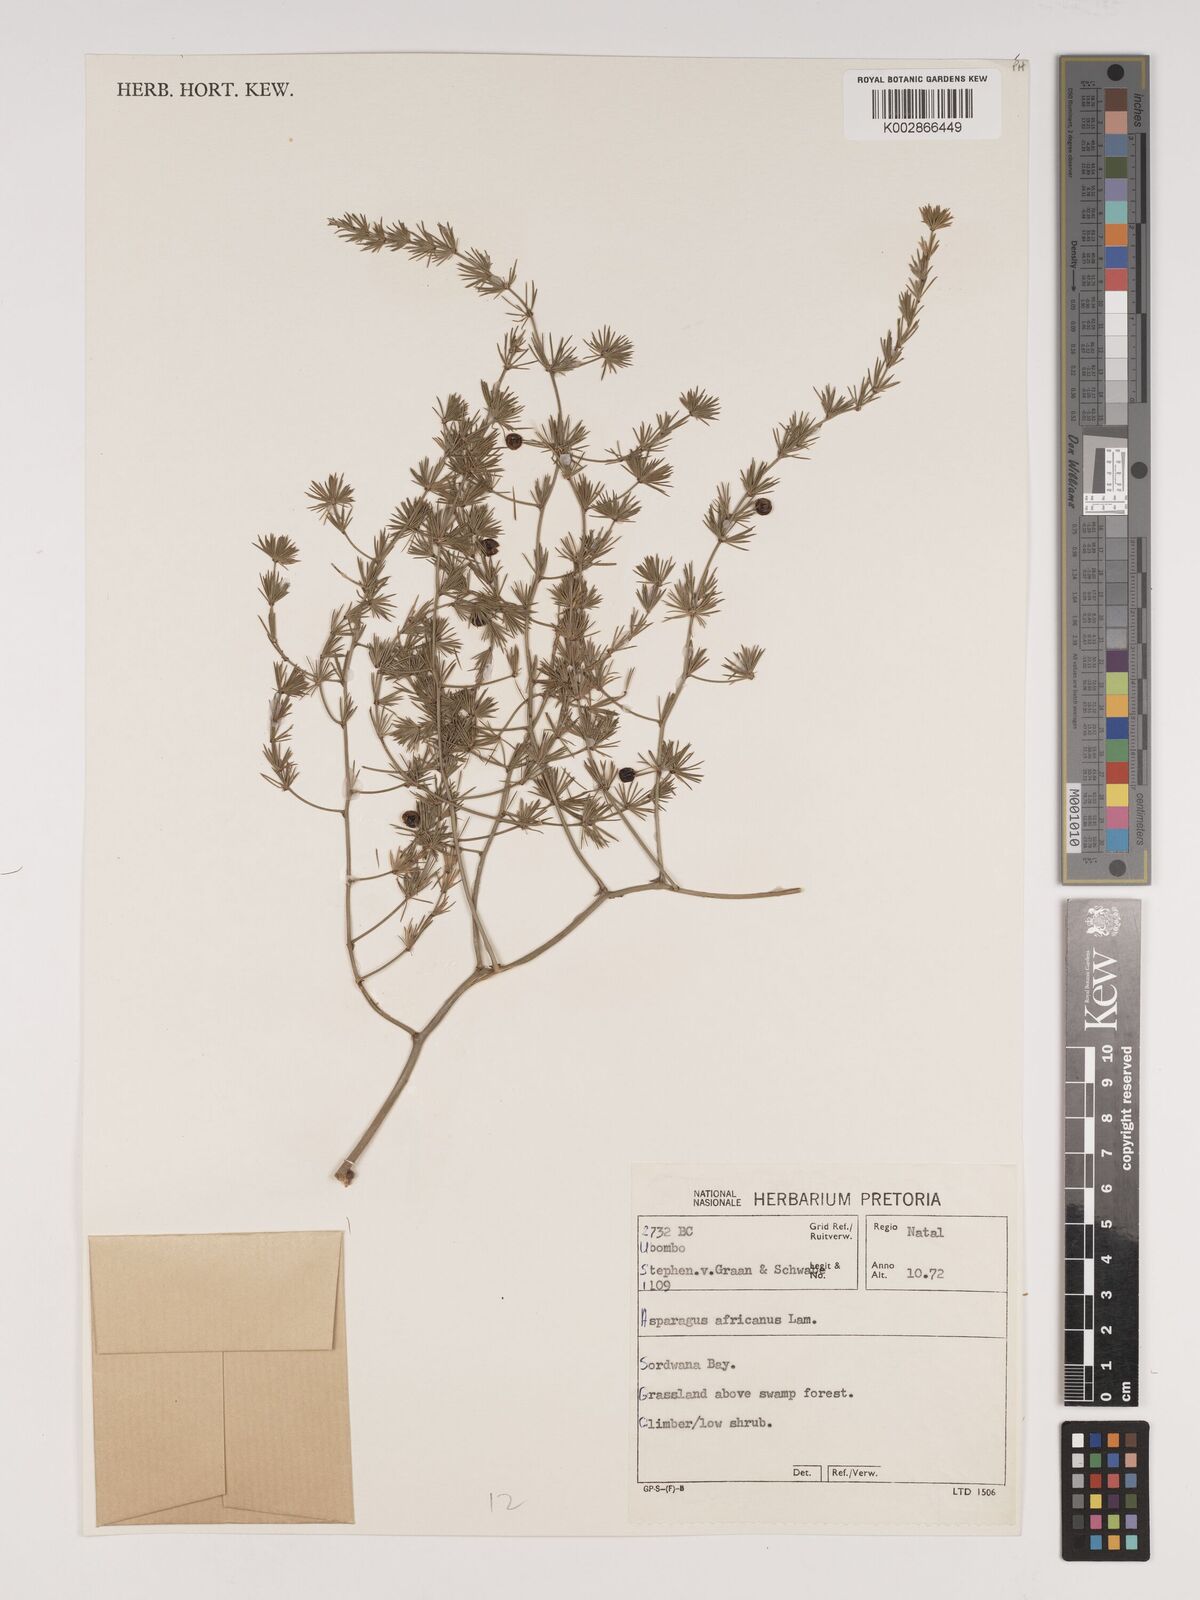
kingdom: Plantae
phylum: Tracheophyta
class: Liliopsida
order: Asparagales
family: Asparagaceae
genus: Asparagus
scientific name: Asparagus africanus
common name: Asparagus-fern
